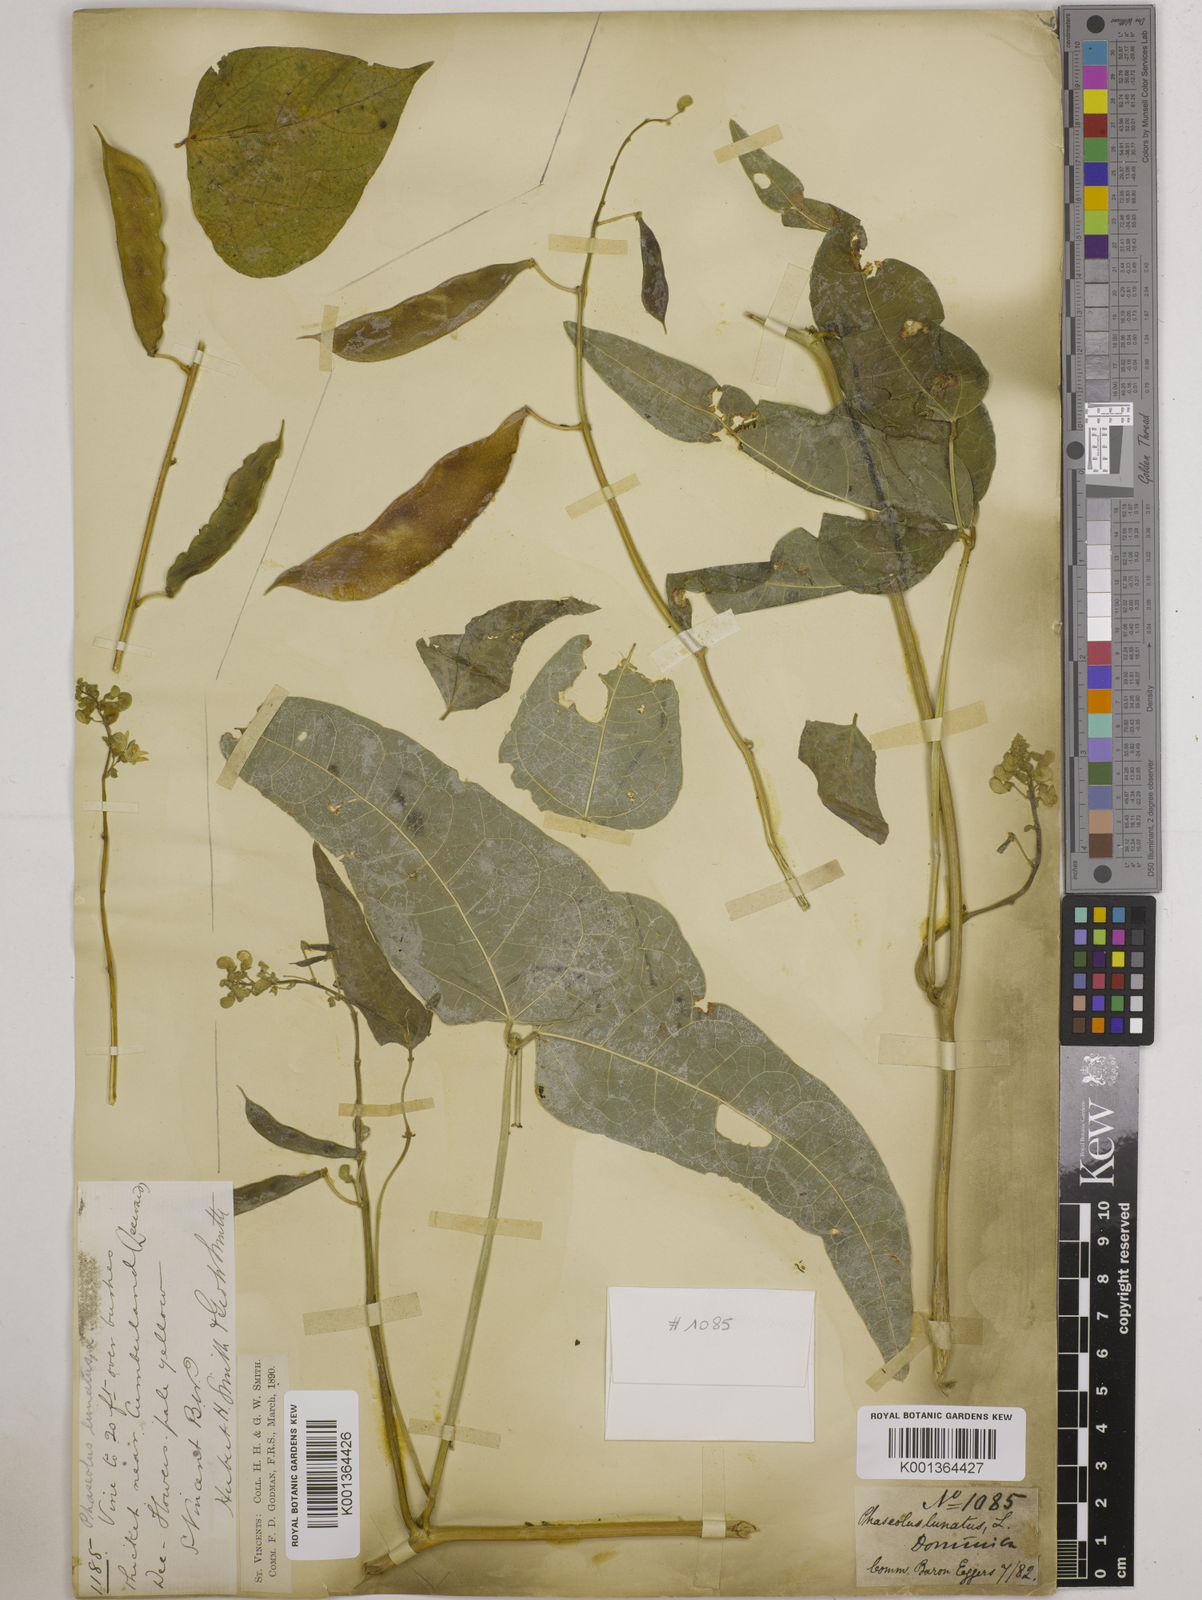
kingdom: Plantae
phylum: Tracheophyta
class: Magnoliopsida
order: Fabales
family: Fabaceae
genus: Phaseolus
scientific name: Phaseolus lunatus
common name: Sieva bean
